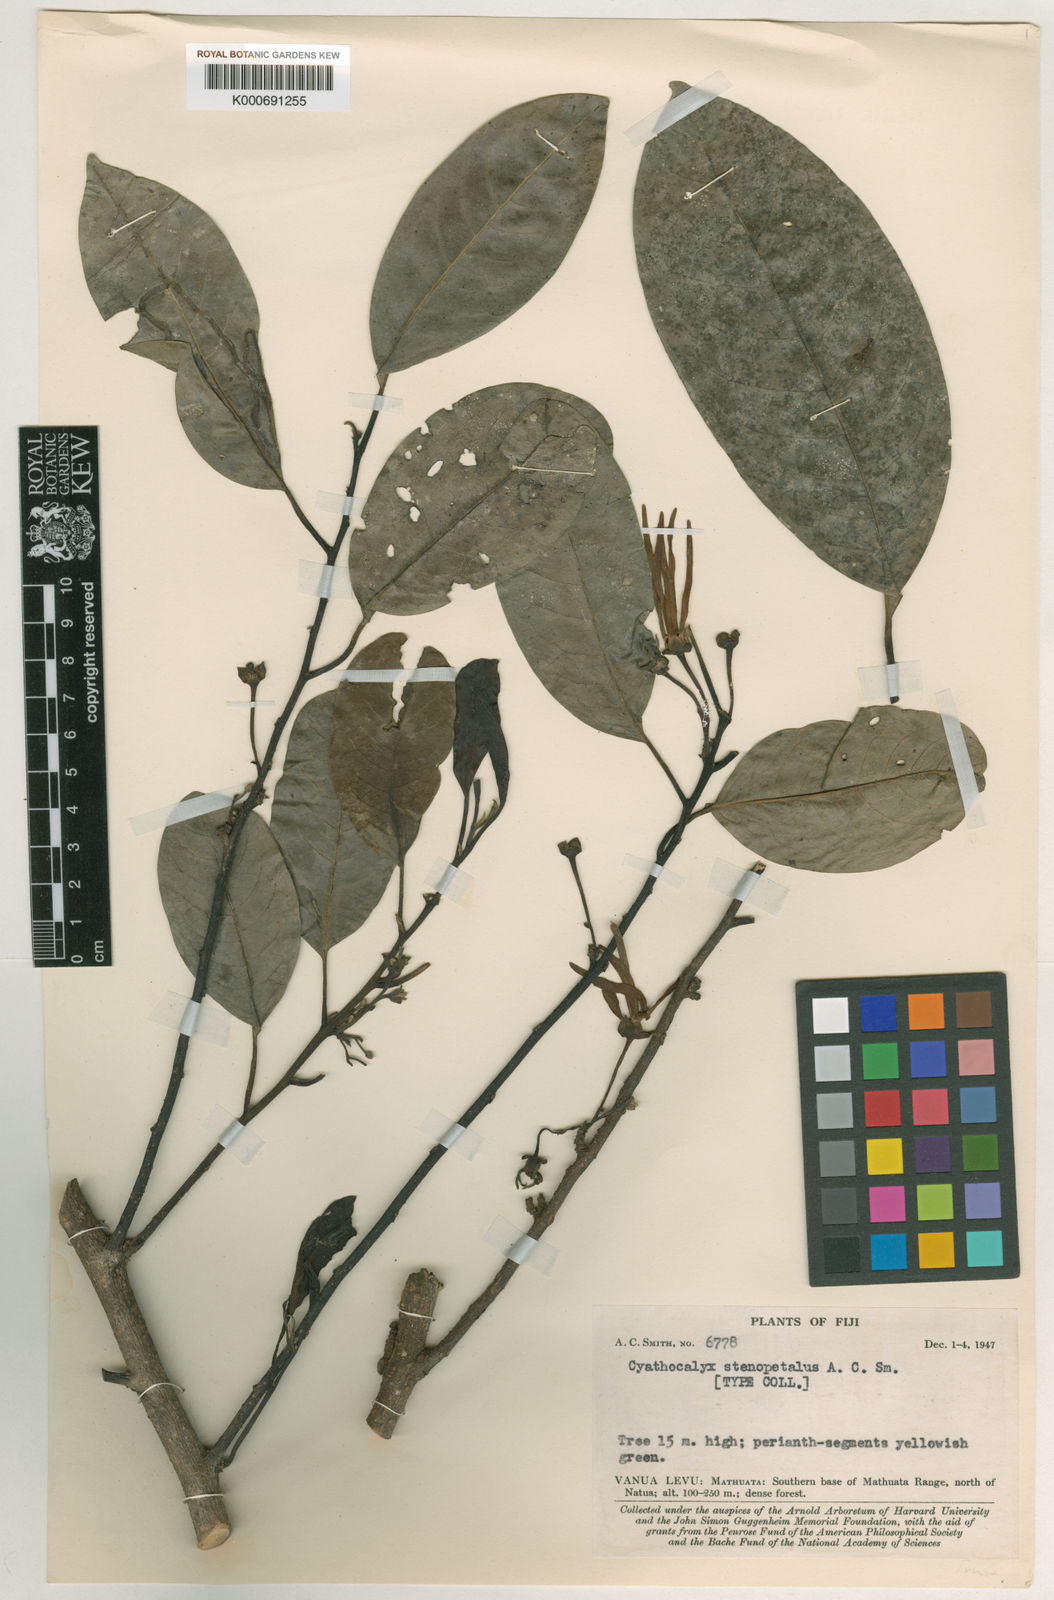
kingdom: Plantae
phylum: Tracheophyta
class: Magnoliopsida
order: Magnoliales
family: Annonaceae
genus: Drepananthus
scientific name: Drepananthus vitiensis
